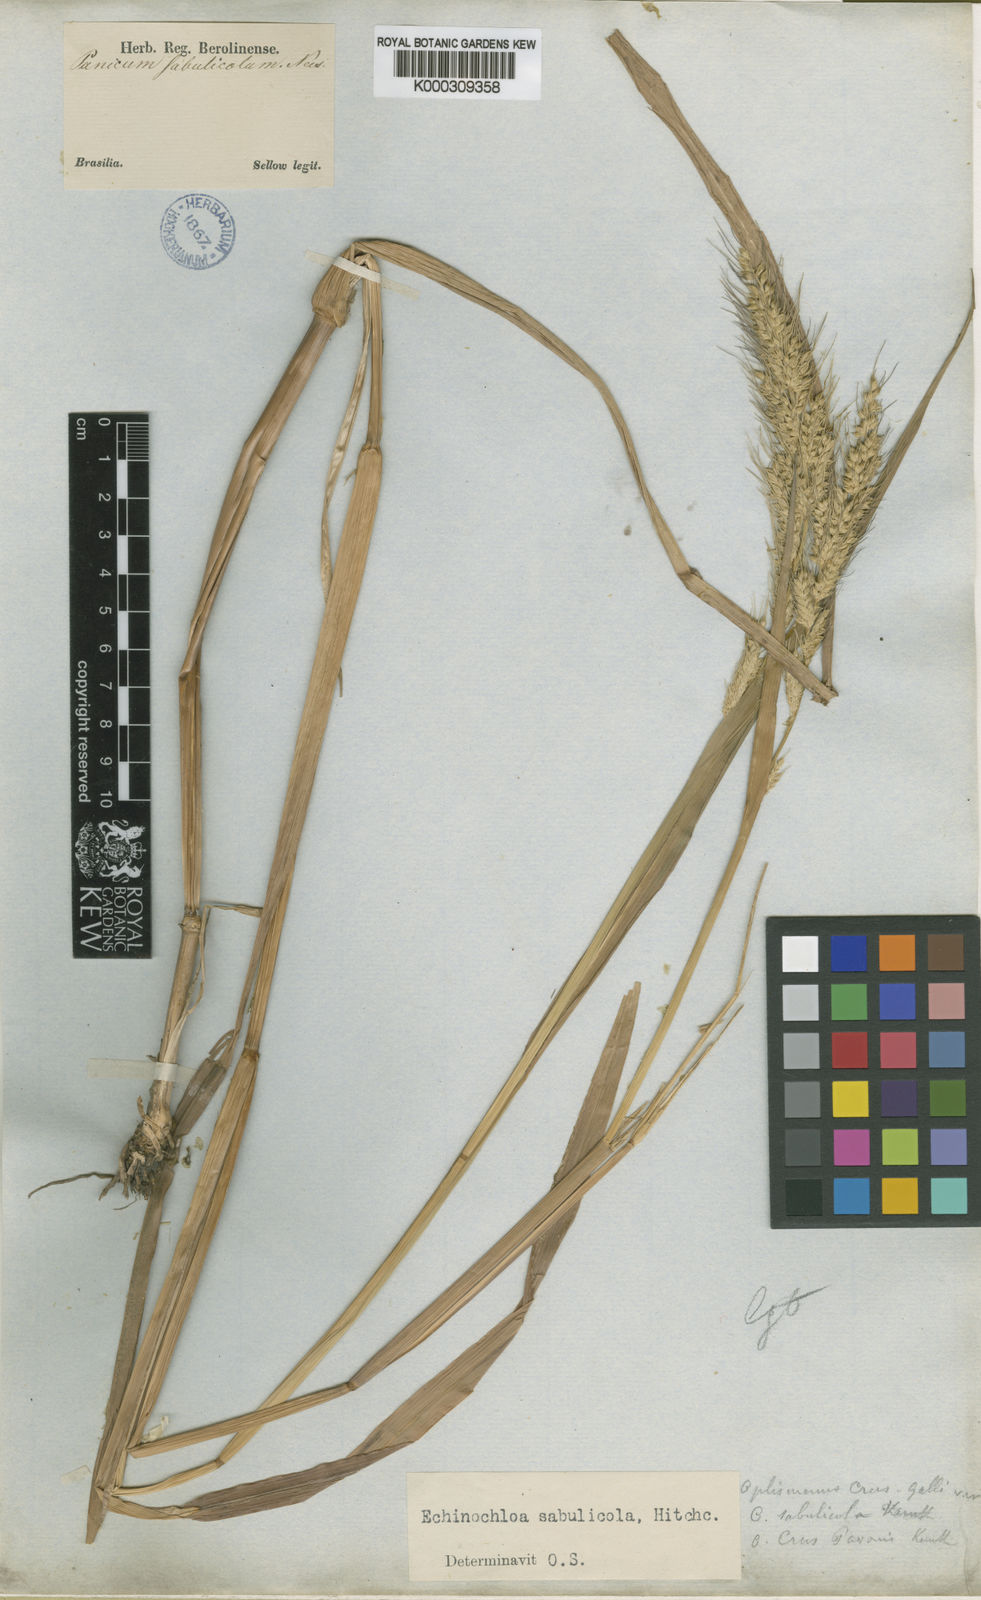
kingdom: Plantae
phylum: Tracheophyta
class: Liliopsida
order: Poales
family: Poaceae
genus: Echinochloa
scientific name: Echinochloa crus-pavonis
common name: Gulf cockspur grass
